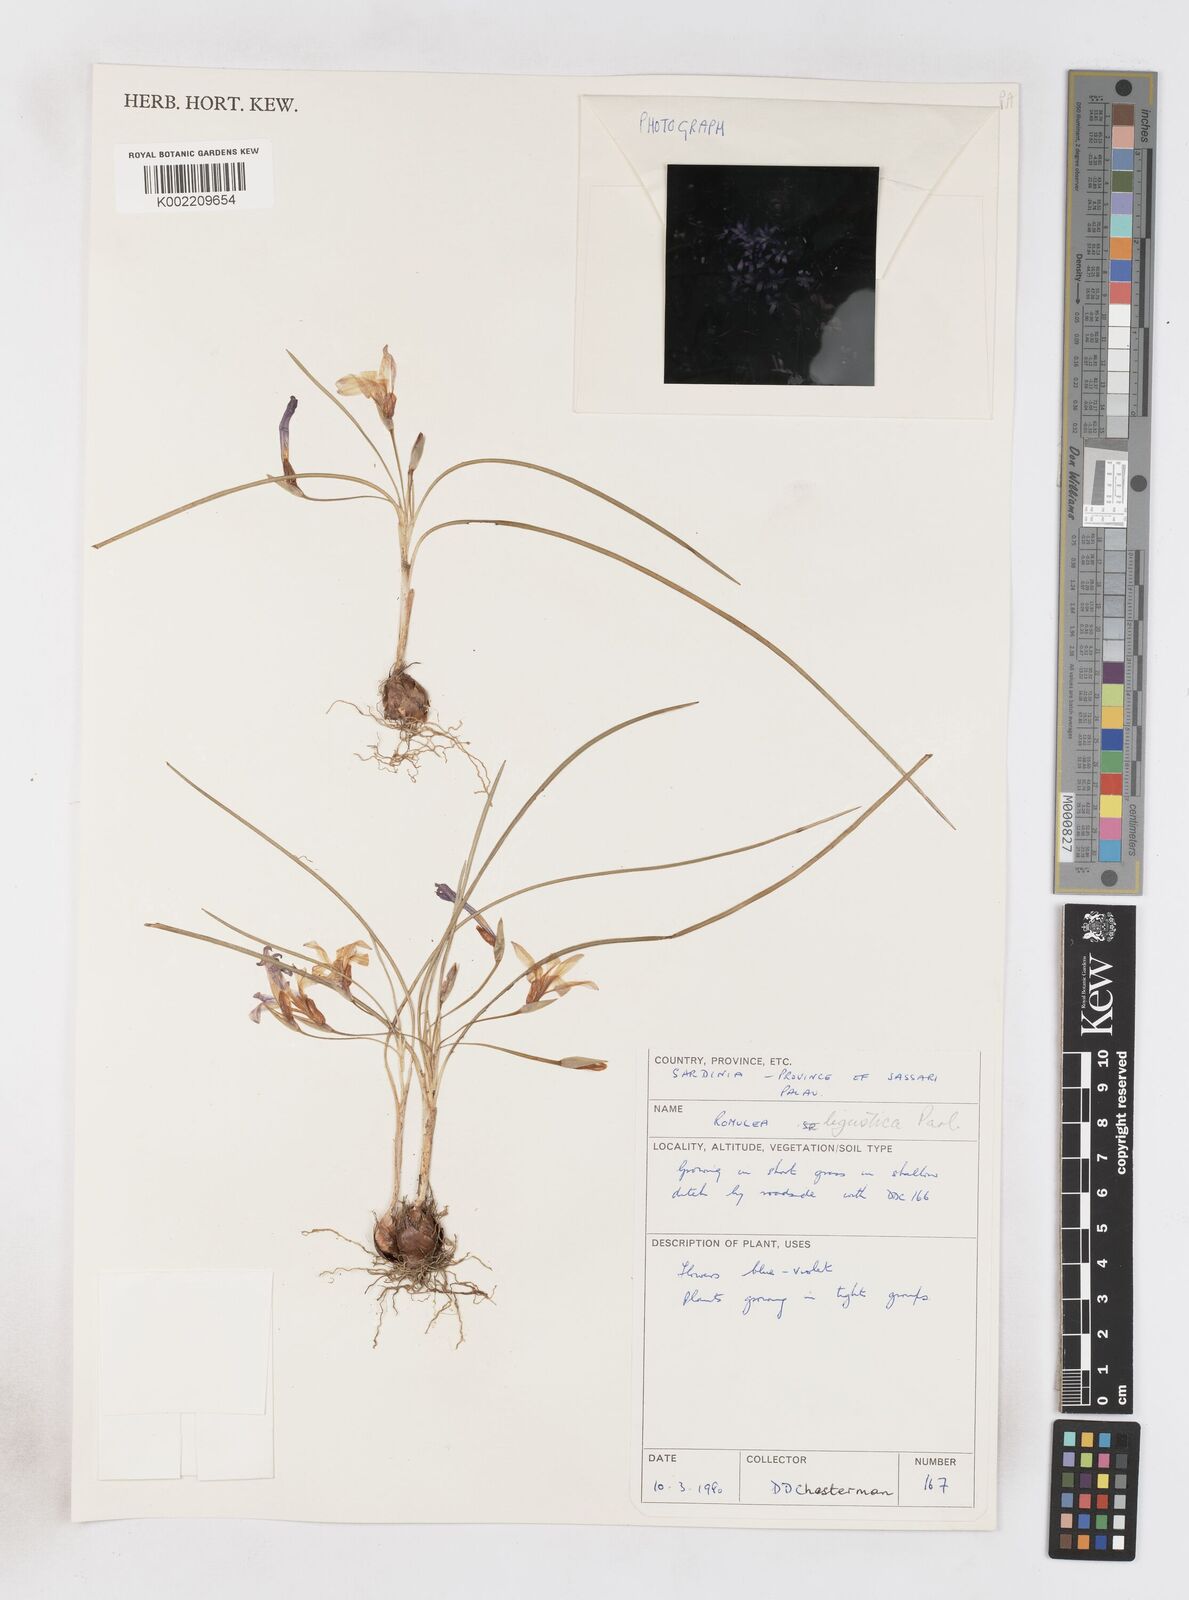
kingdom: Plantae
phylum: Tracheophyta
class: Liliopsida
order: Asparagales
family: Iridaceae
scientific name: Iridaceae
